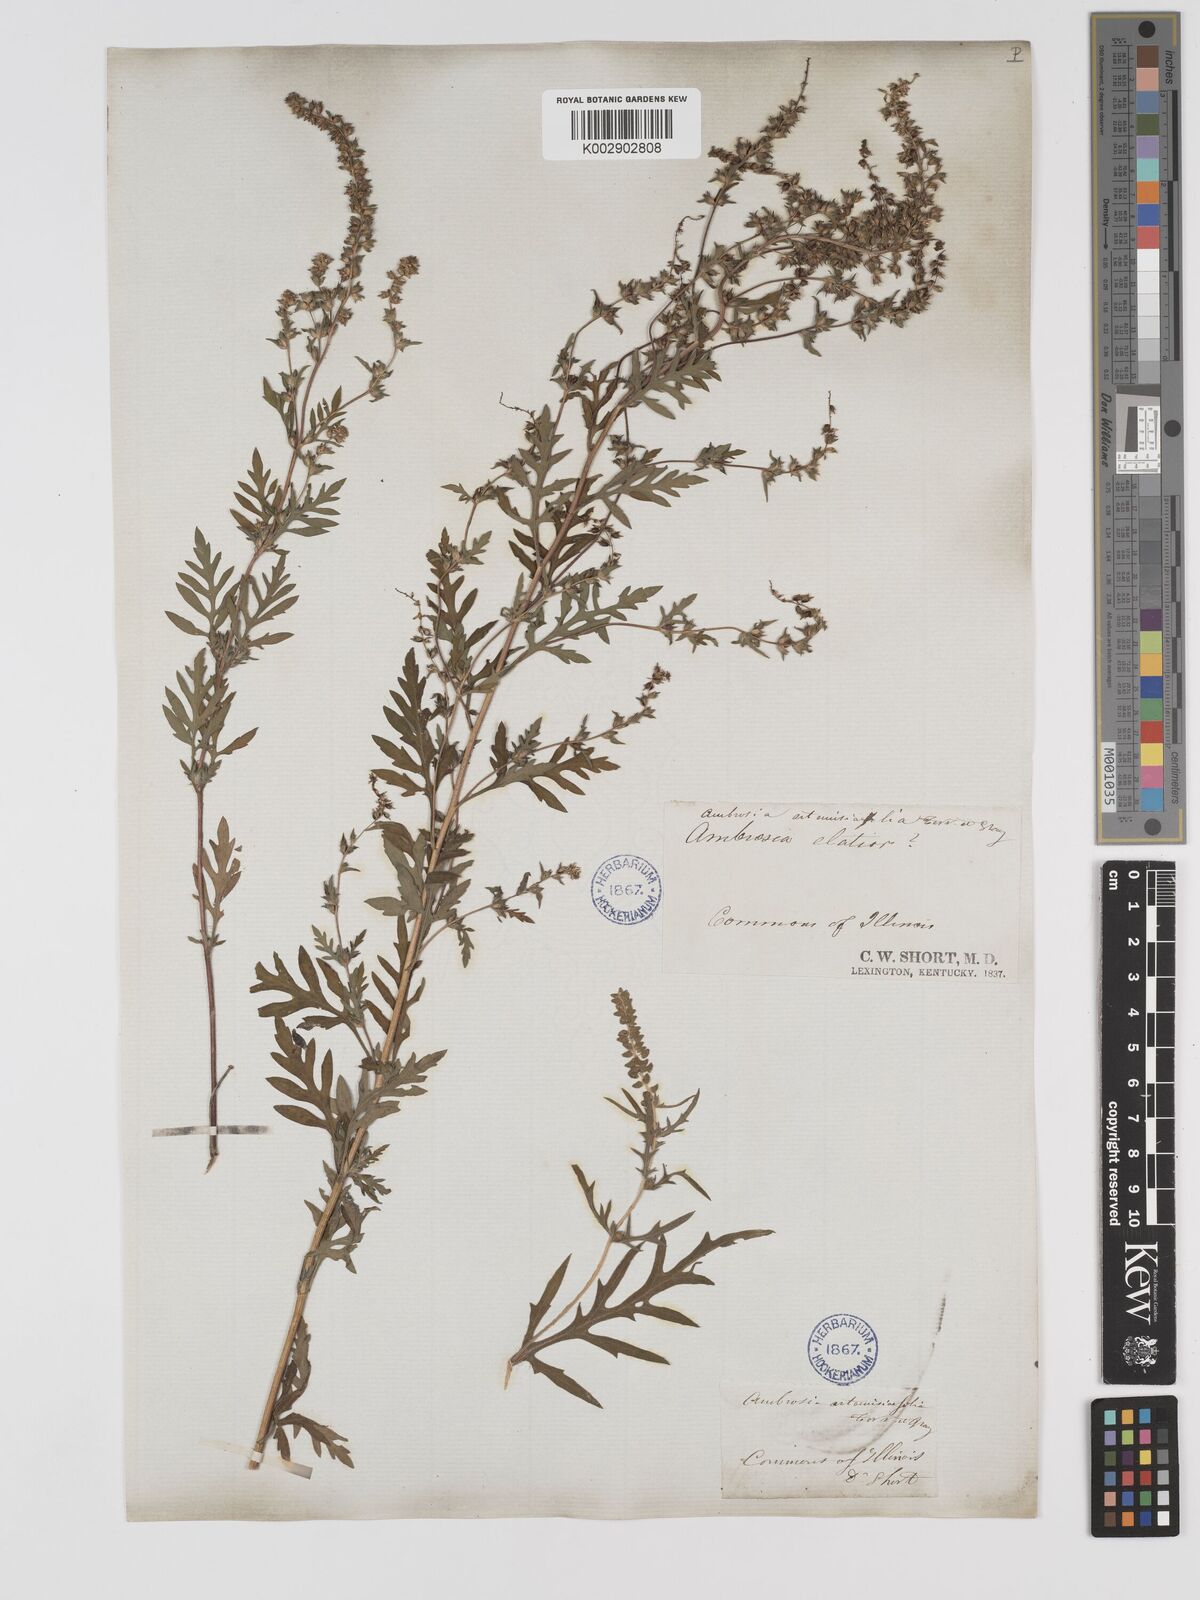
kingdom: Plantae
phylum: Tracheophyta
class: Magnoliopsida
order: Asterales
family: Asteraceae
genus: Ambrosia
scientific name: Ambrosia artemisiifolia
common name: Annual ragweed
